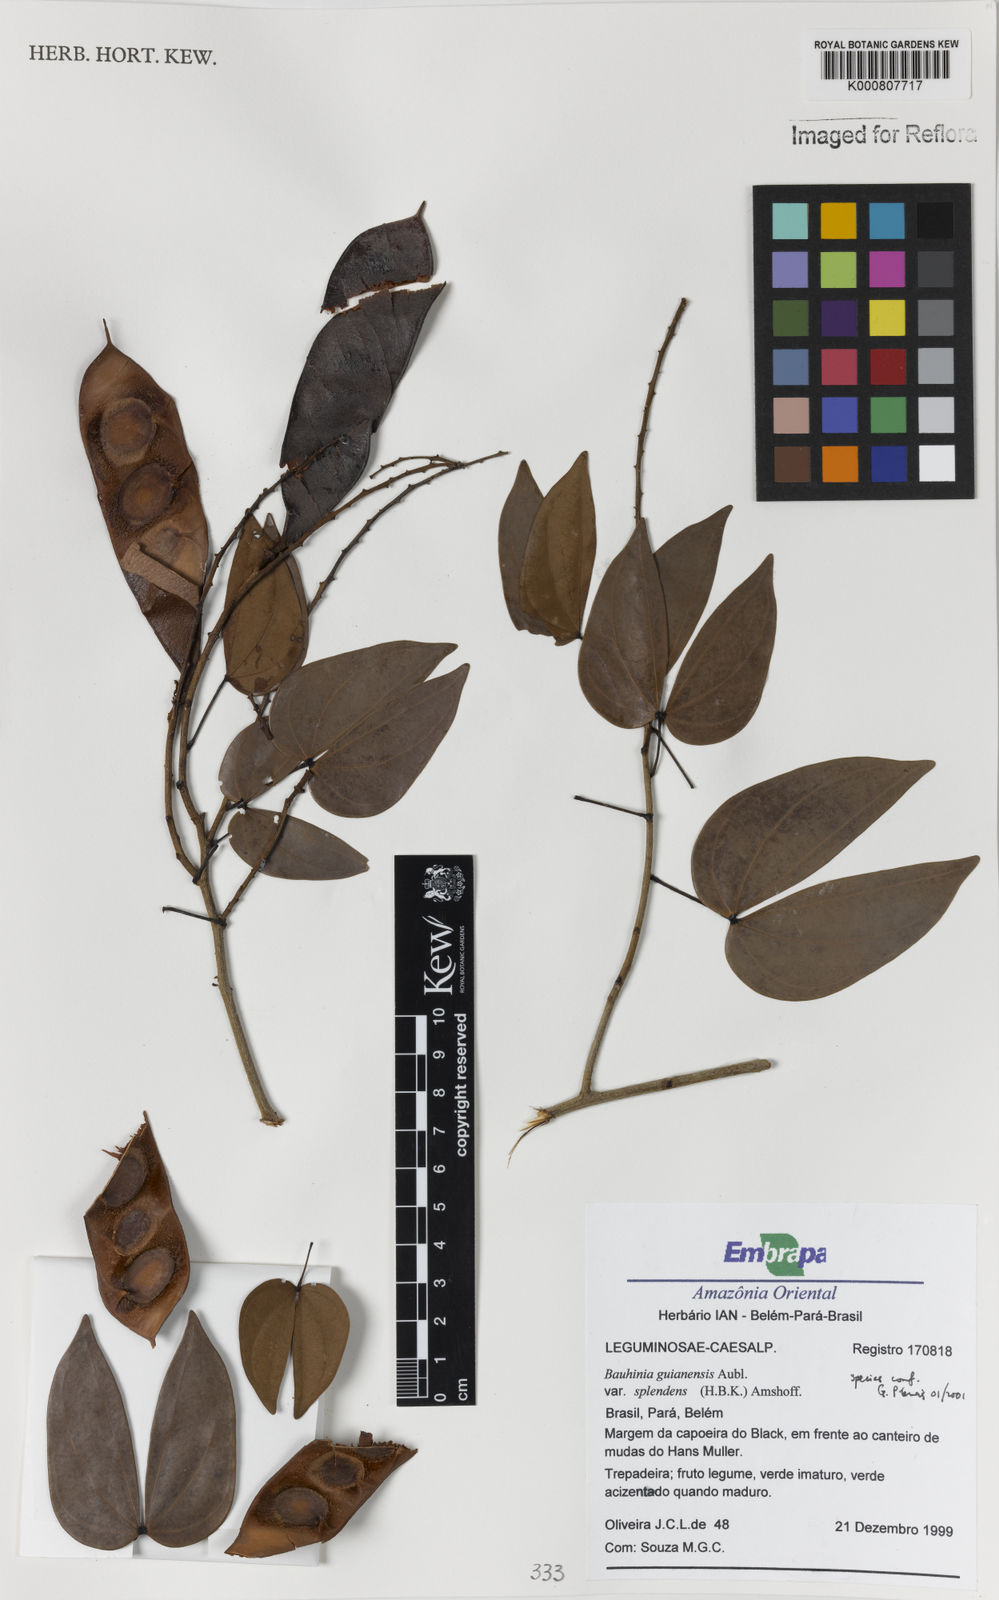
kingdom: Plantae
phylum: Tracheophyta
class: Magnoliopsida
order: Fabales
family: Fabaceae
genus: Schnella
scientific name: Schnella splendens
